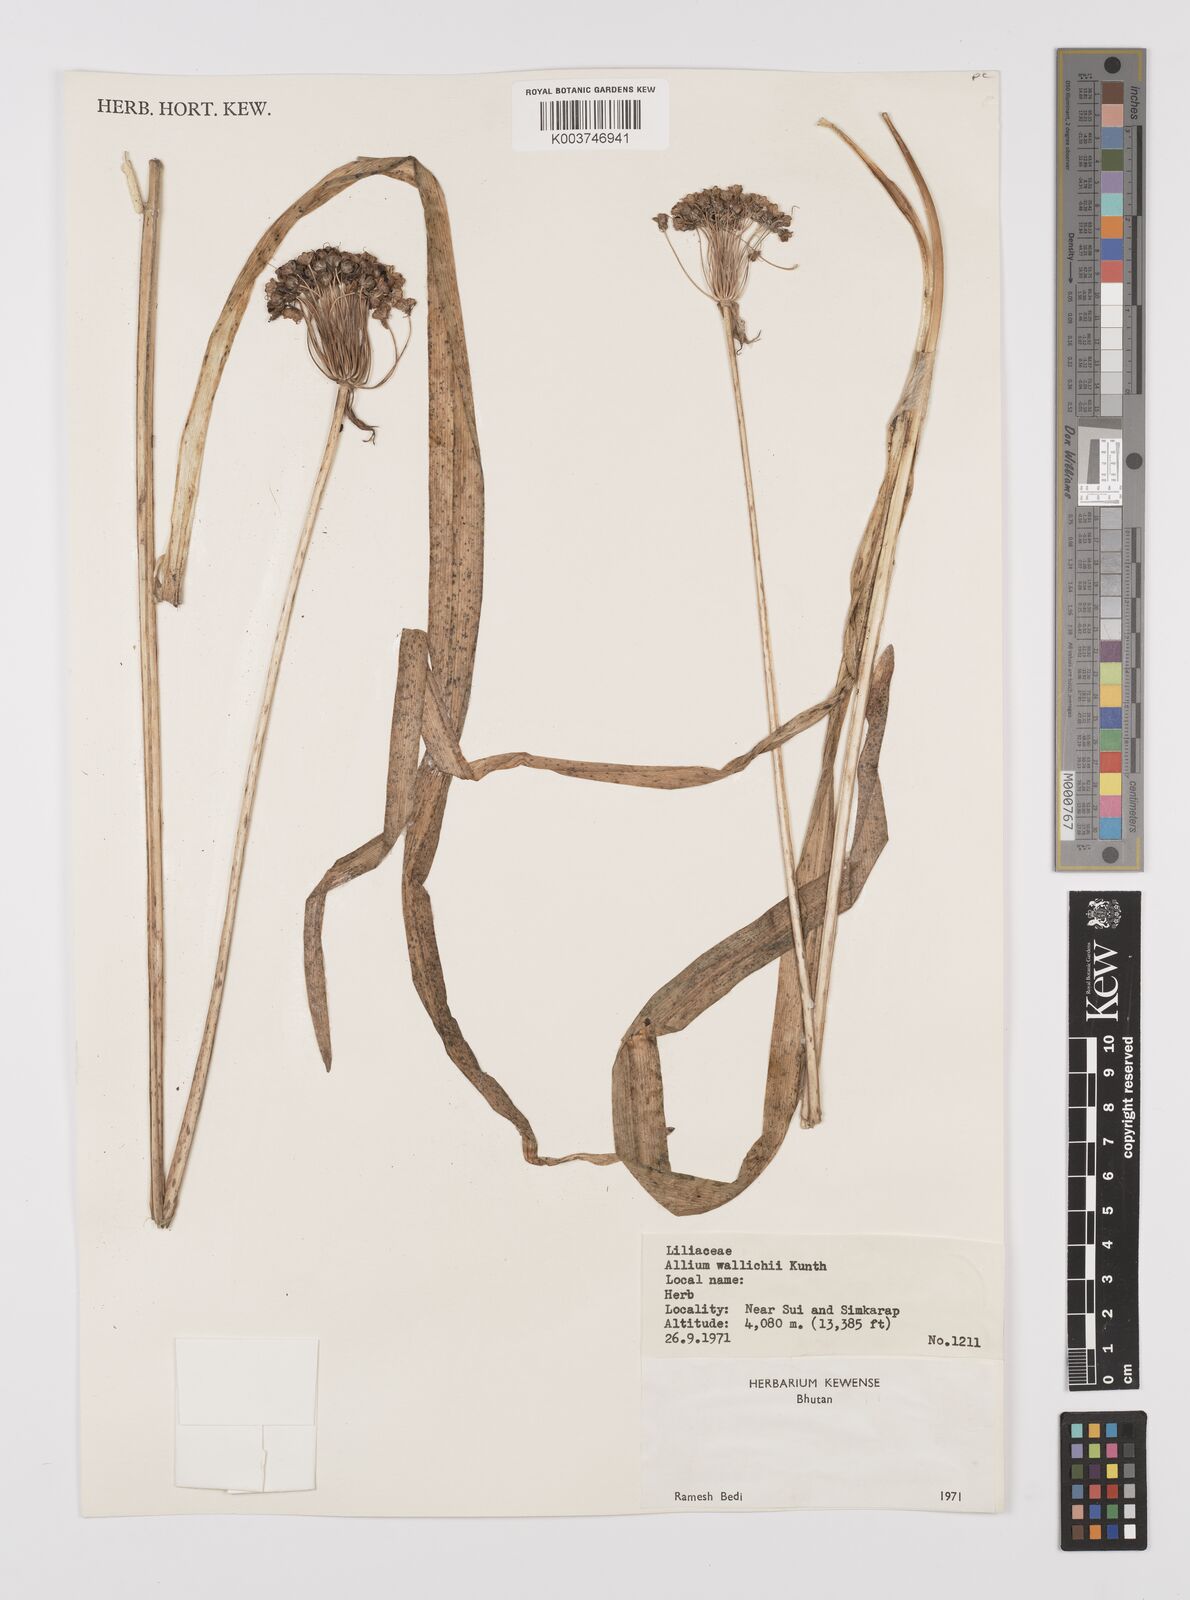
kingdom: Plantae
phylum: Tracheophyta
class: Liliopsida
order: Asparagales
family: Amaryllidaceae
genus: Allium
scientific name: Allium
